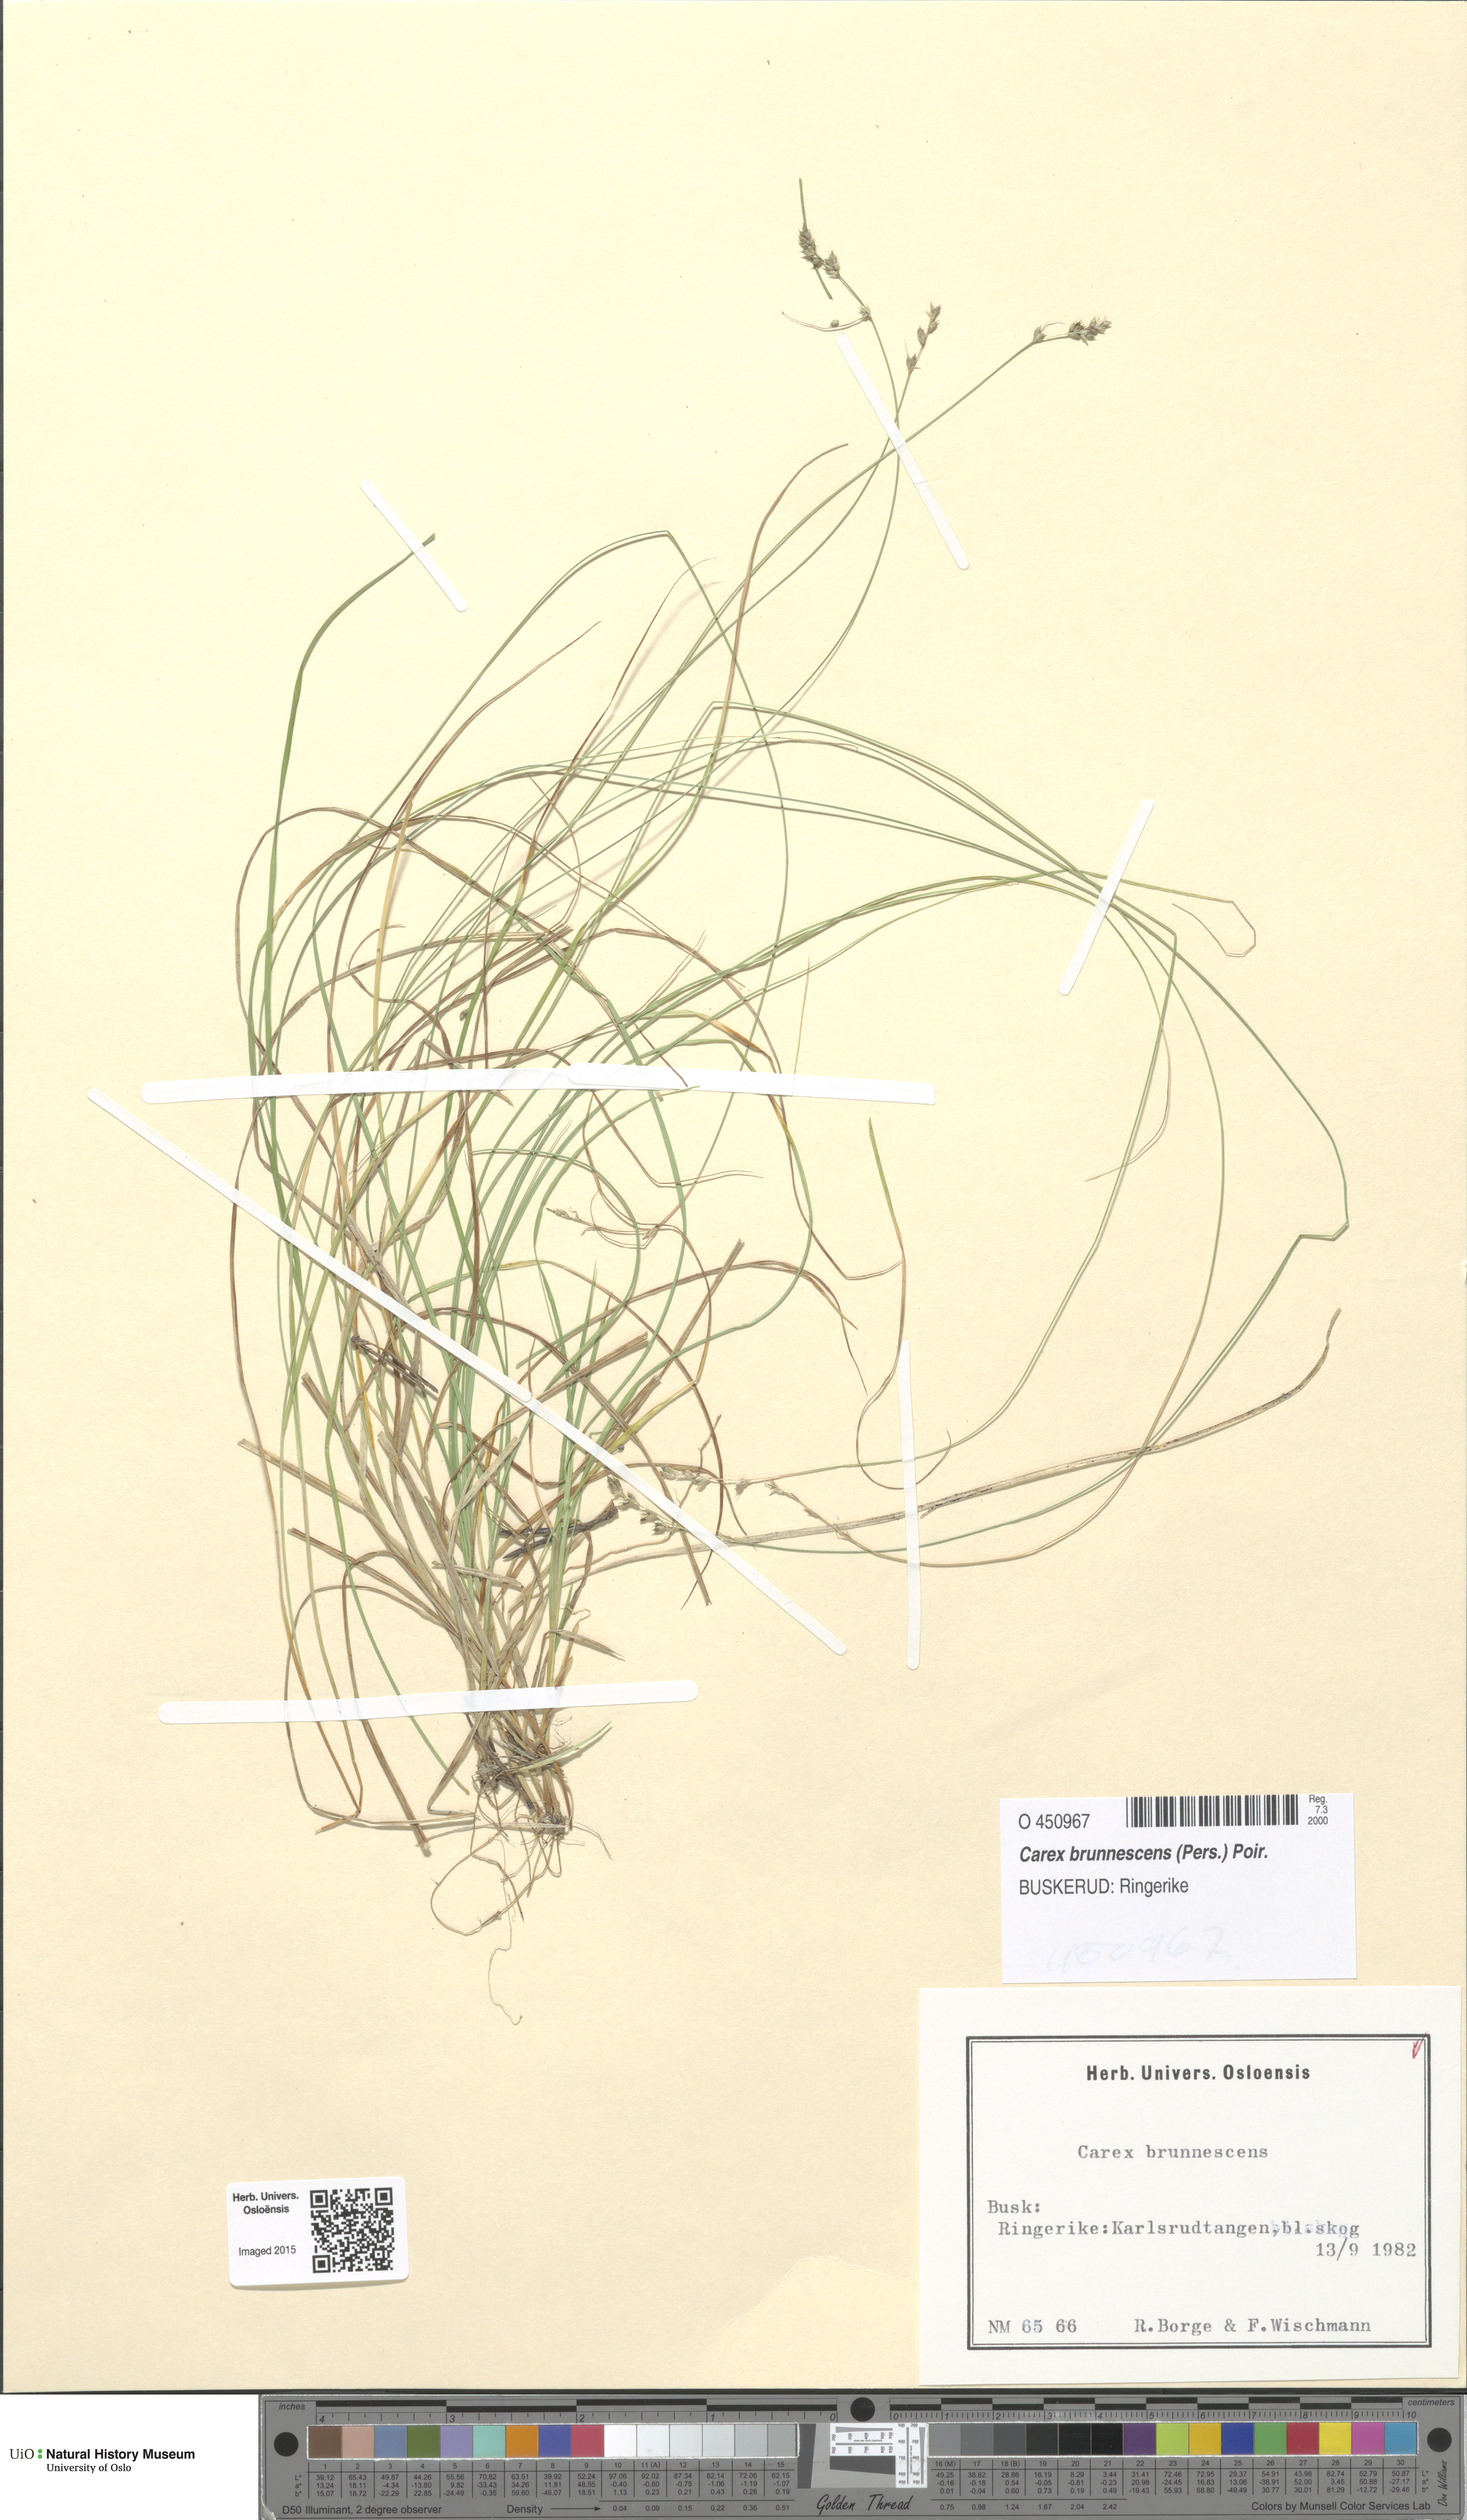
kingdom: Plantae
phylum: Tracheophyta
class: Liliopsida
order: Poales
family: Cyperaceae
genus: Carex
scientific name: Carex brunnescens
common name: Brown sedge
